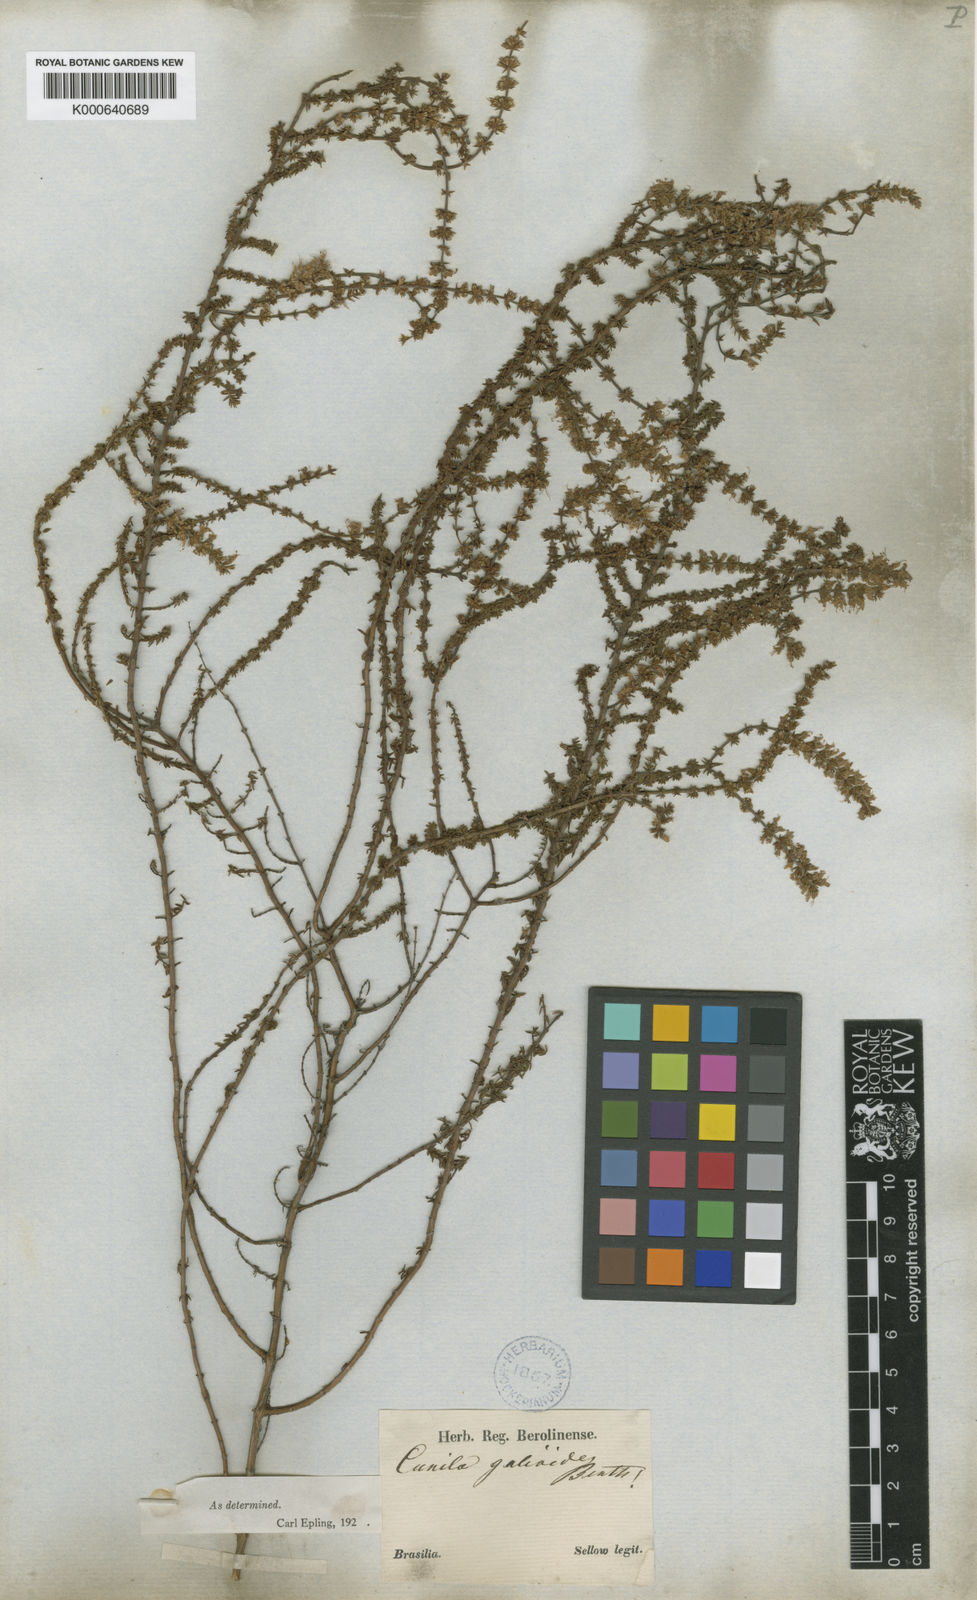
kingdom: Plantae
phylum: Tracheophyta
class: Magnoliopsida
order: Lamiales
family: Lamiaceae
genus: Cunila
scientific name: Cunila galioides
